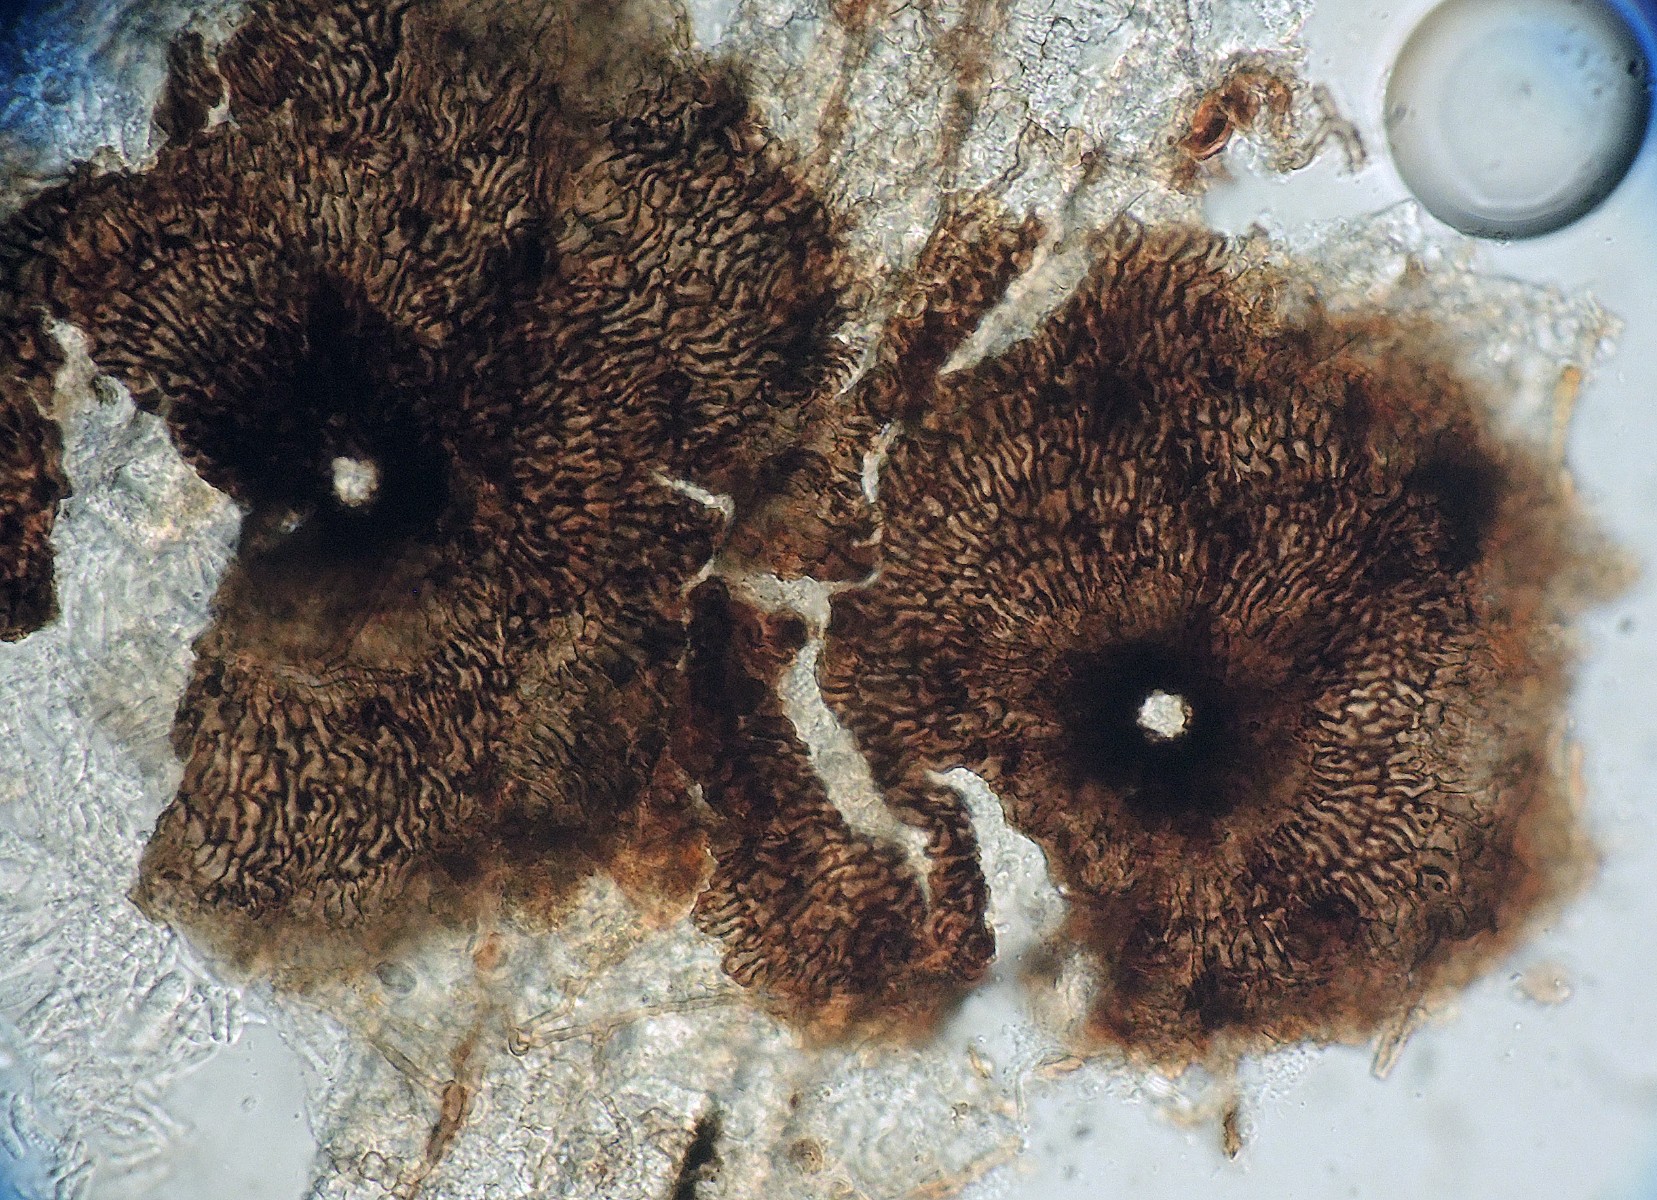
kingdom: Fungi
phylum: Ascomycota
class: Dothideomycetes
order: Microthyriales
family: Micropeltidaceae
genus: Stomiopeltis
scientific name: Stomiopeltis pinastri
